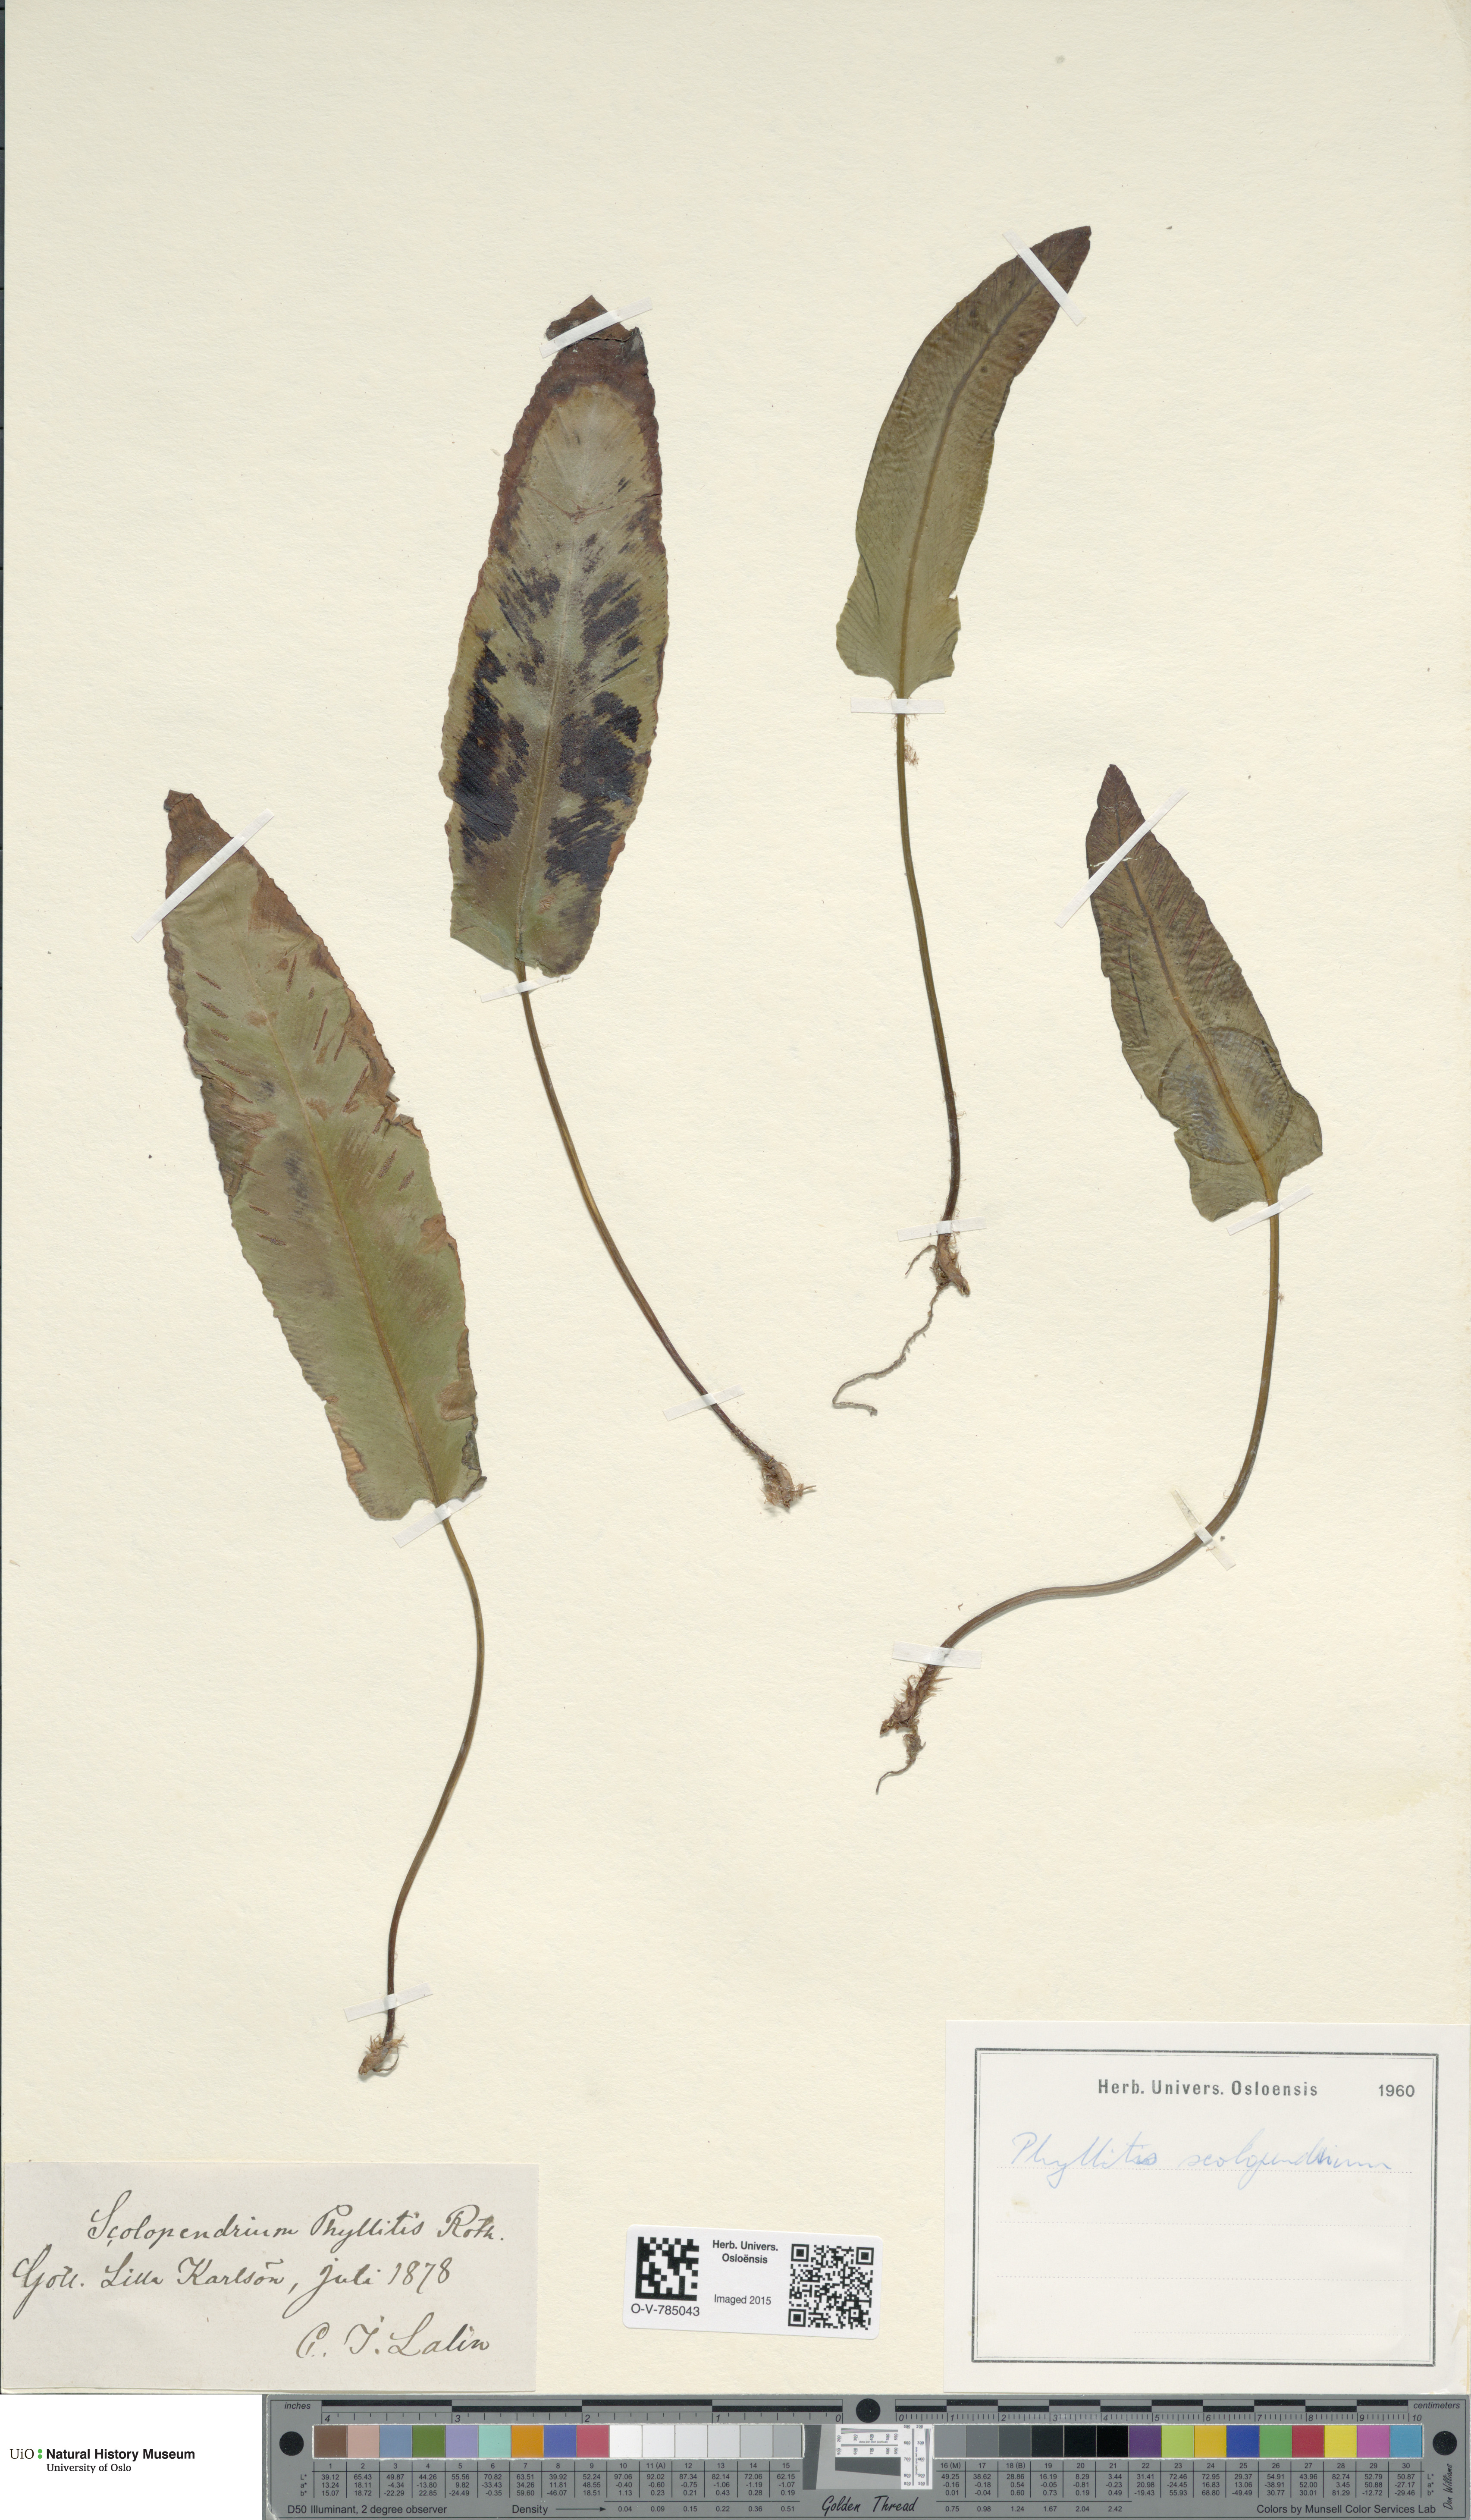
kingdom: Plantae
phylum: Tracheophyta
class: Polypodiopsida
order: Polypodiales
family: Aspleniaceae
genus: Asplenium
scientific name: Asplenium scolopendrium
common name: Hart's-tongue fern
